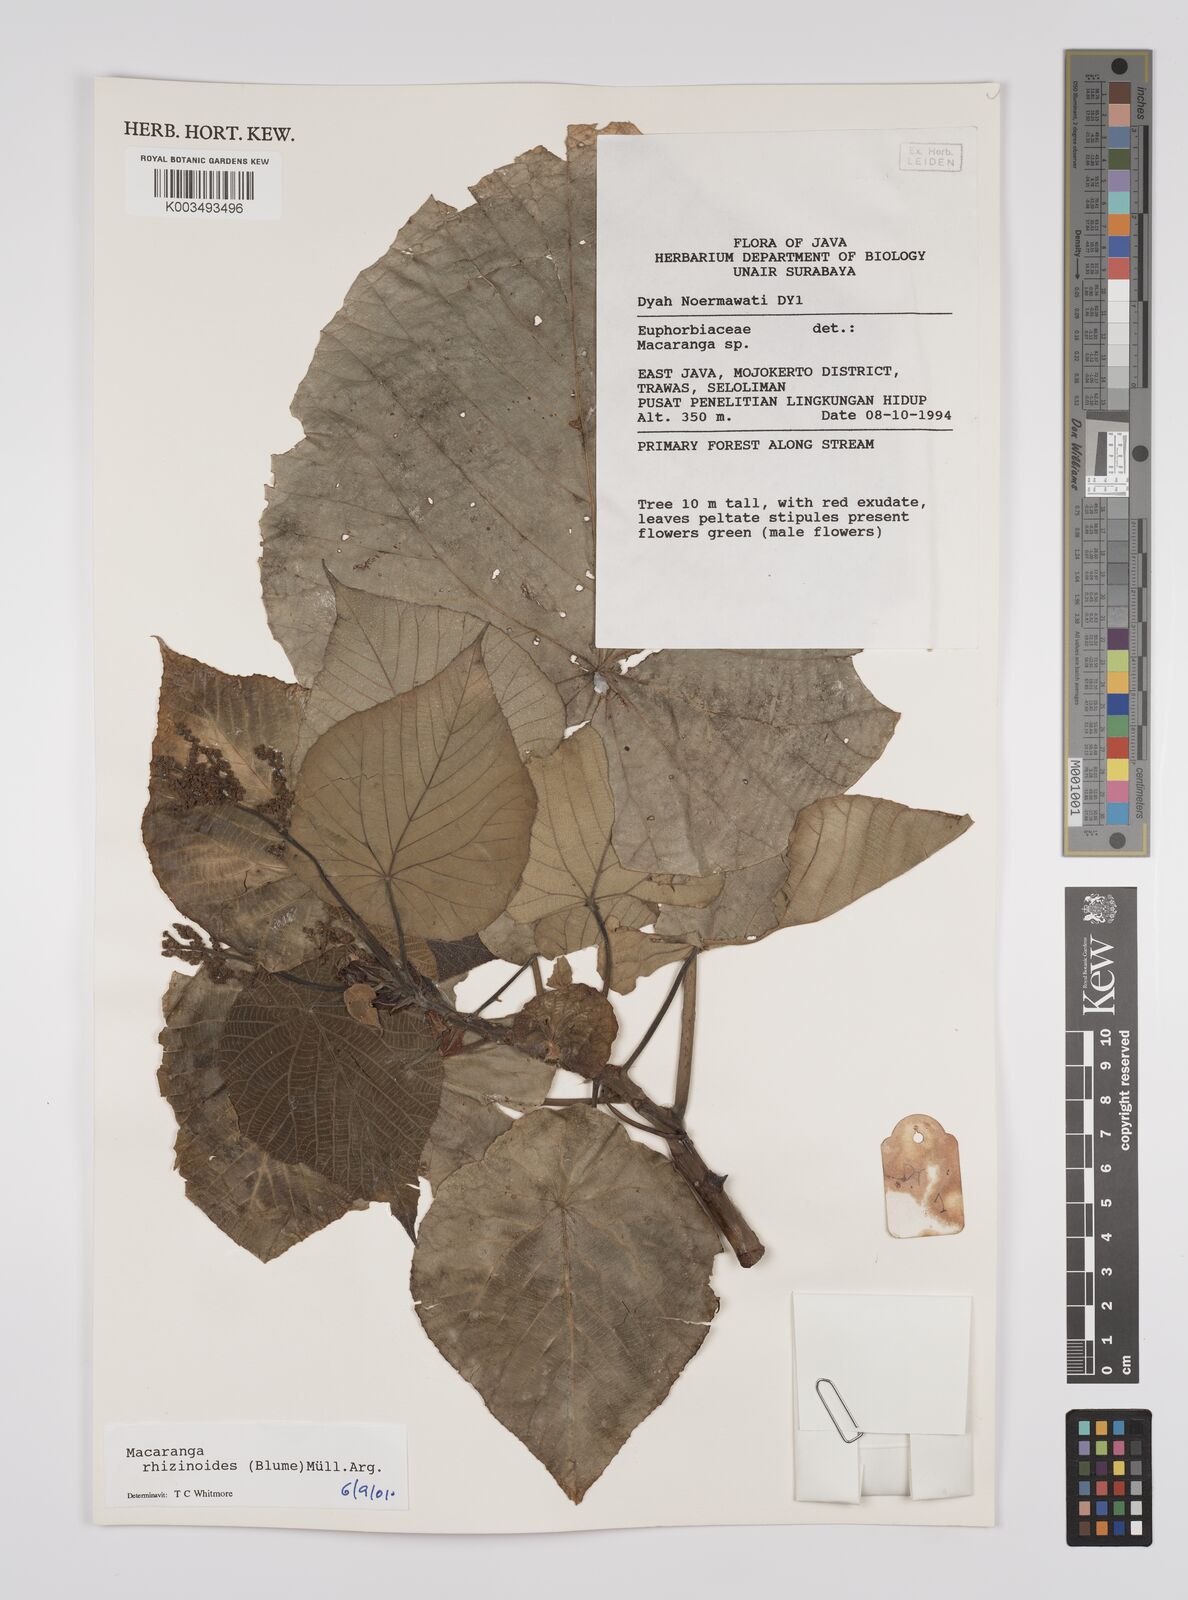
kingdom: Plantae
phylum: Tracheophyta
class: Magnoliopsida
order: Malpighiales
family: Euphorbiaceae
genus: Macaranga
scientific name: Macaranga rhizinoides
